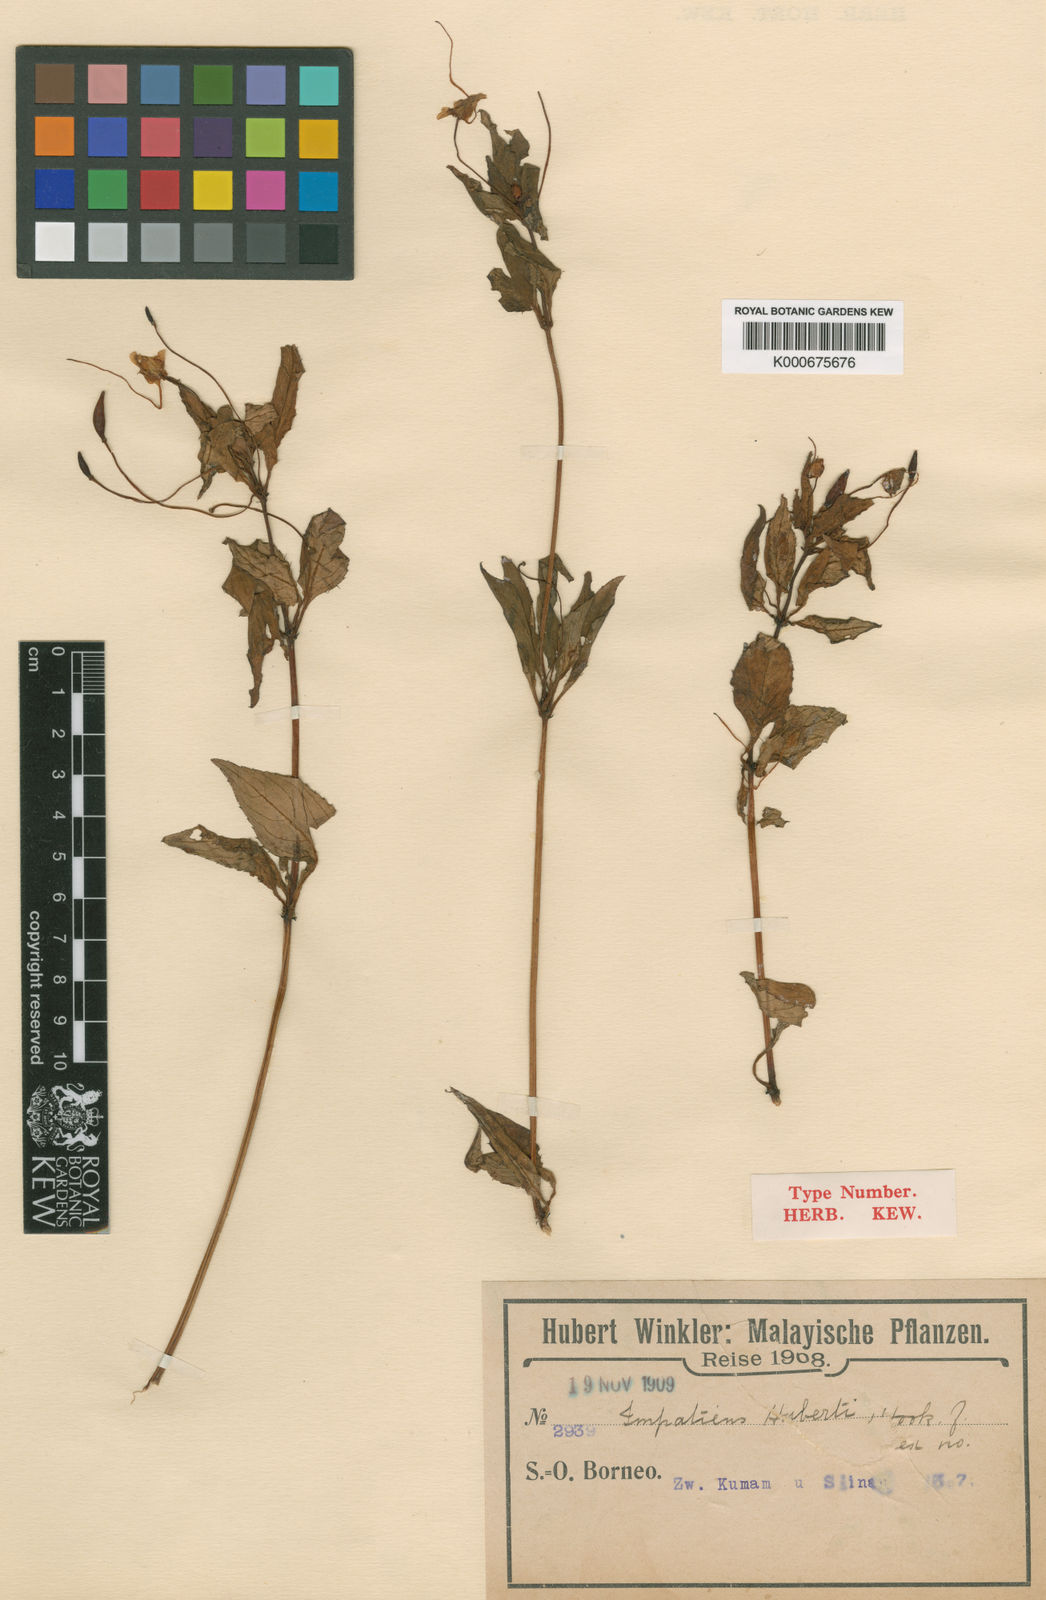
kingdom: Plantae
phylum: Tracheophyta
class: Magnoliopsida
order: Ericales
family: Balsaminaceae
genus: Impatiens
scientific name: Impatiens platypetala
